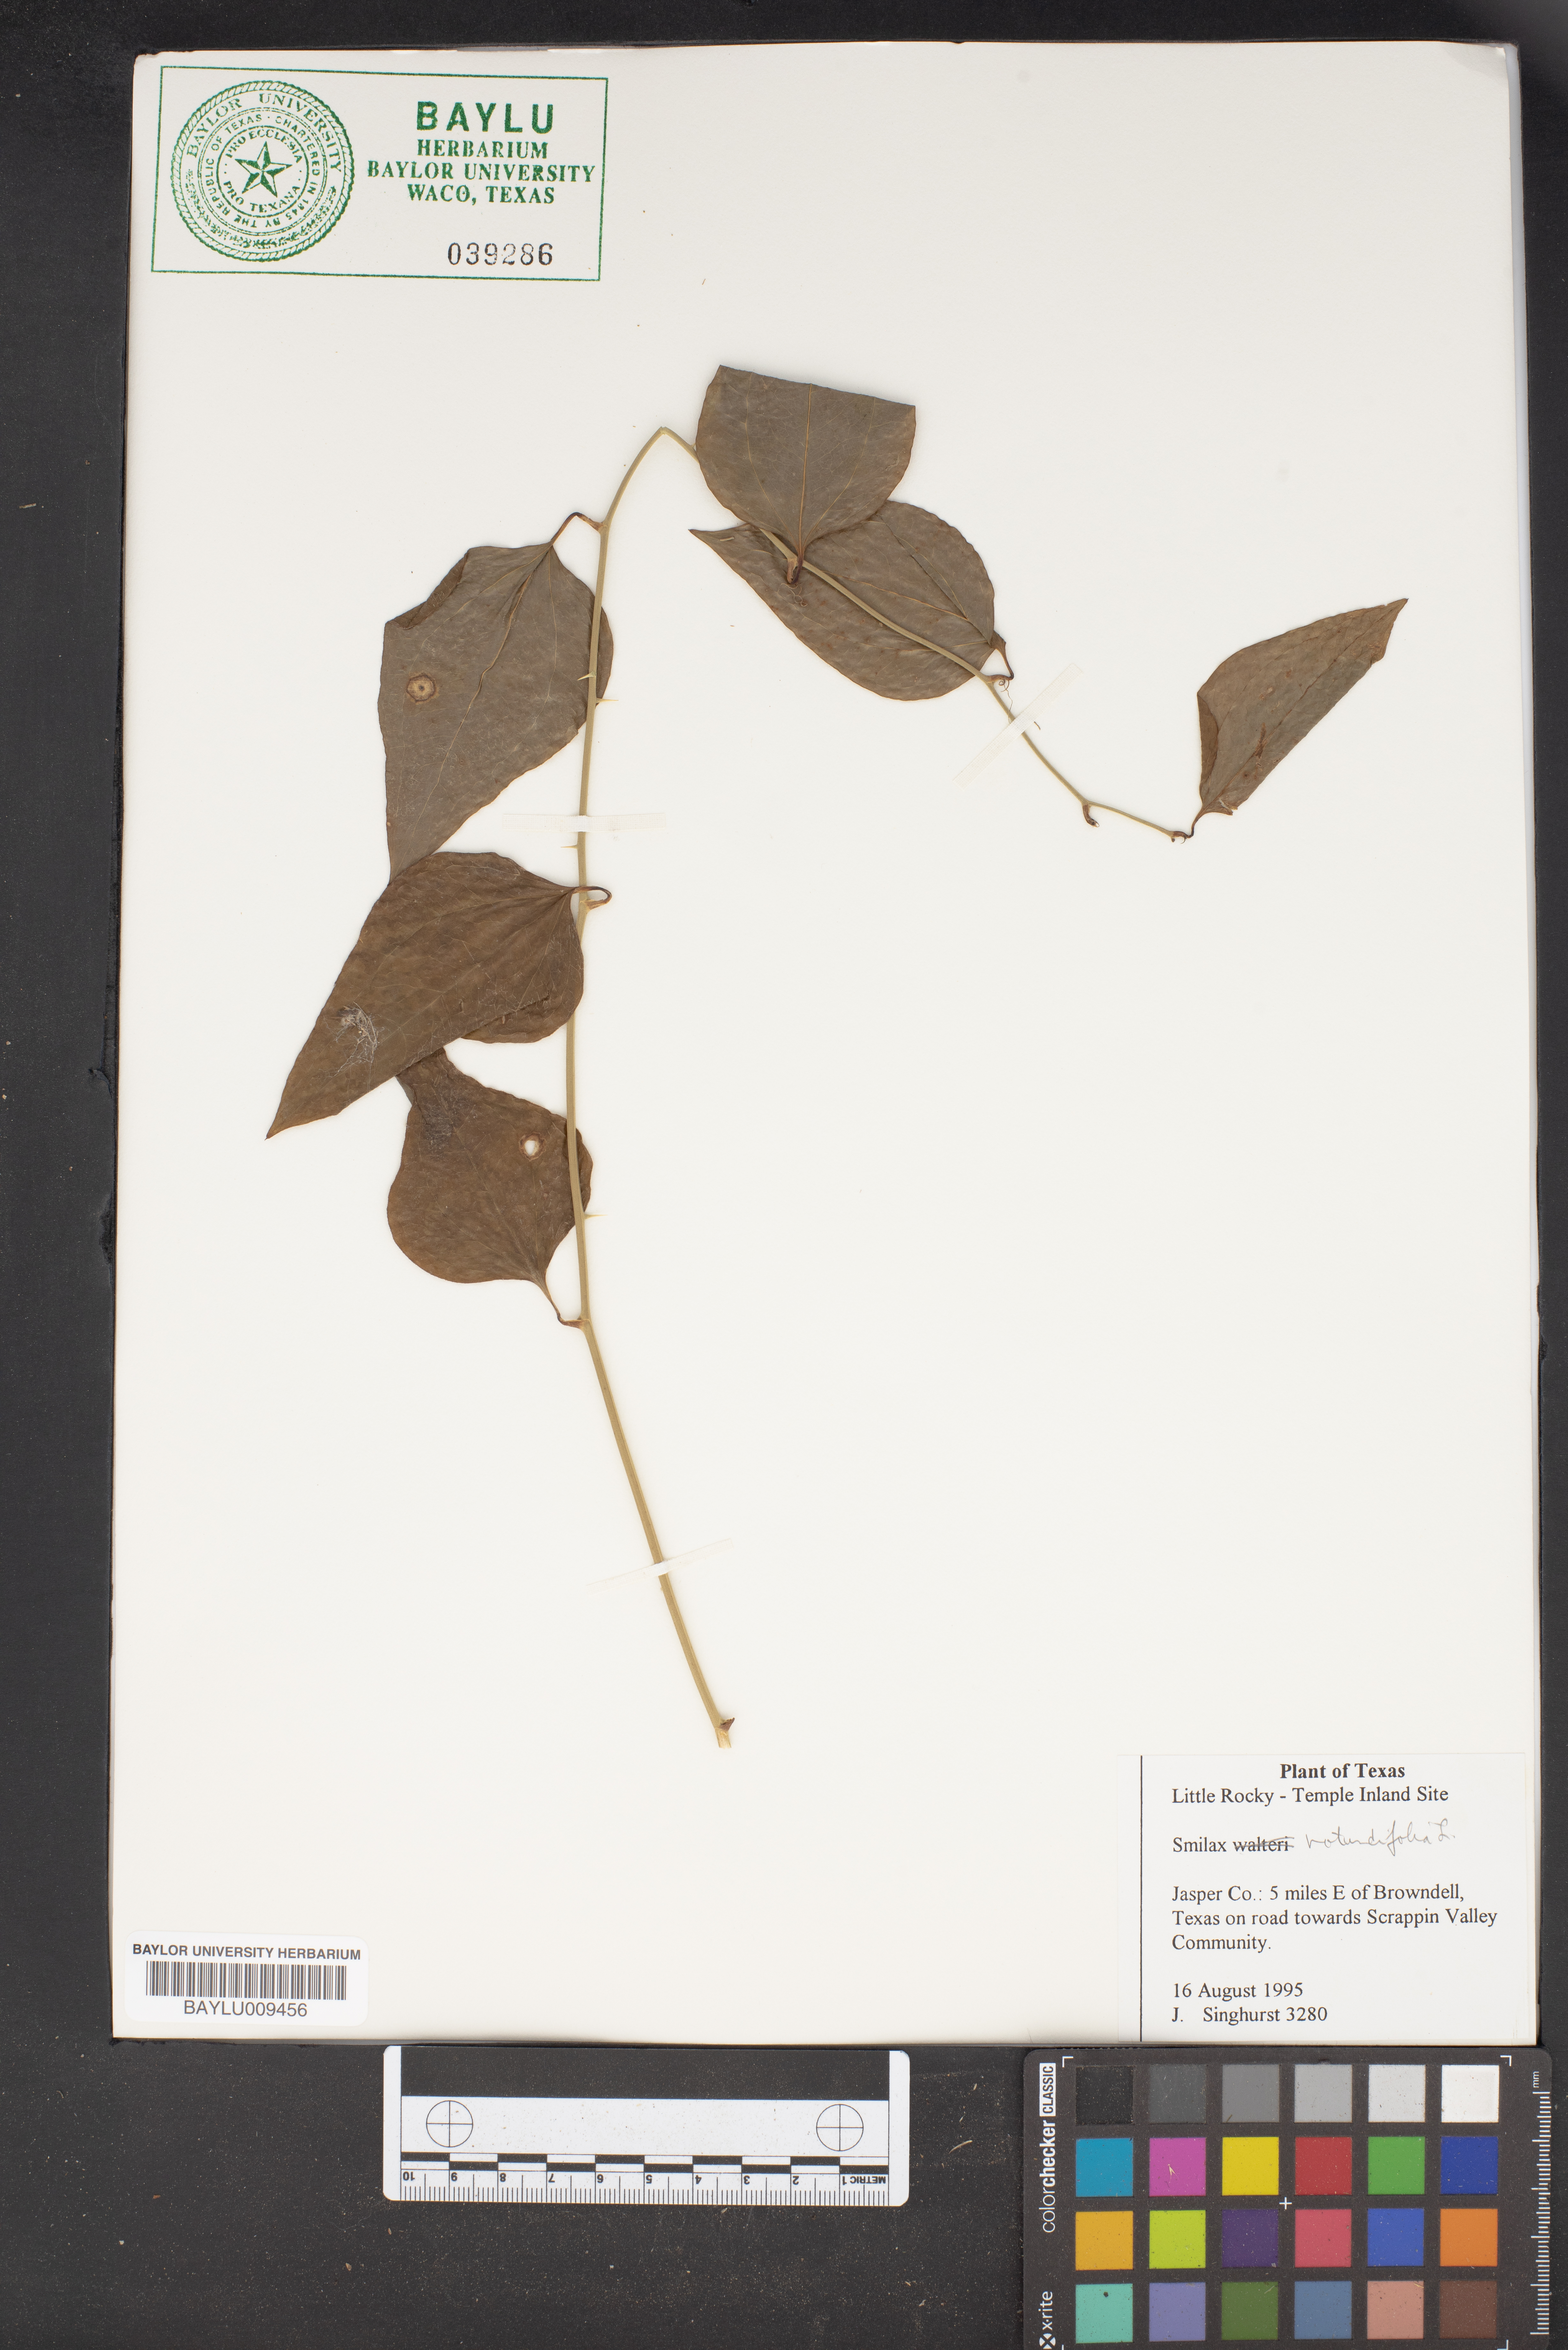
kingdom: Plantae
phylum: Tracheophyta
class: Liliopsida
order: Liliales
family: Smilacaceae
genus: Smilax
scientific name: Smilax rotundifolia
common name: Bullbriar
